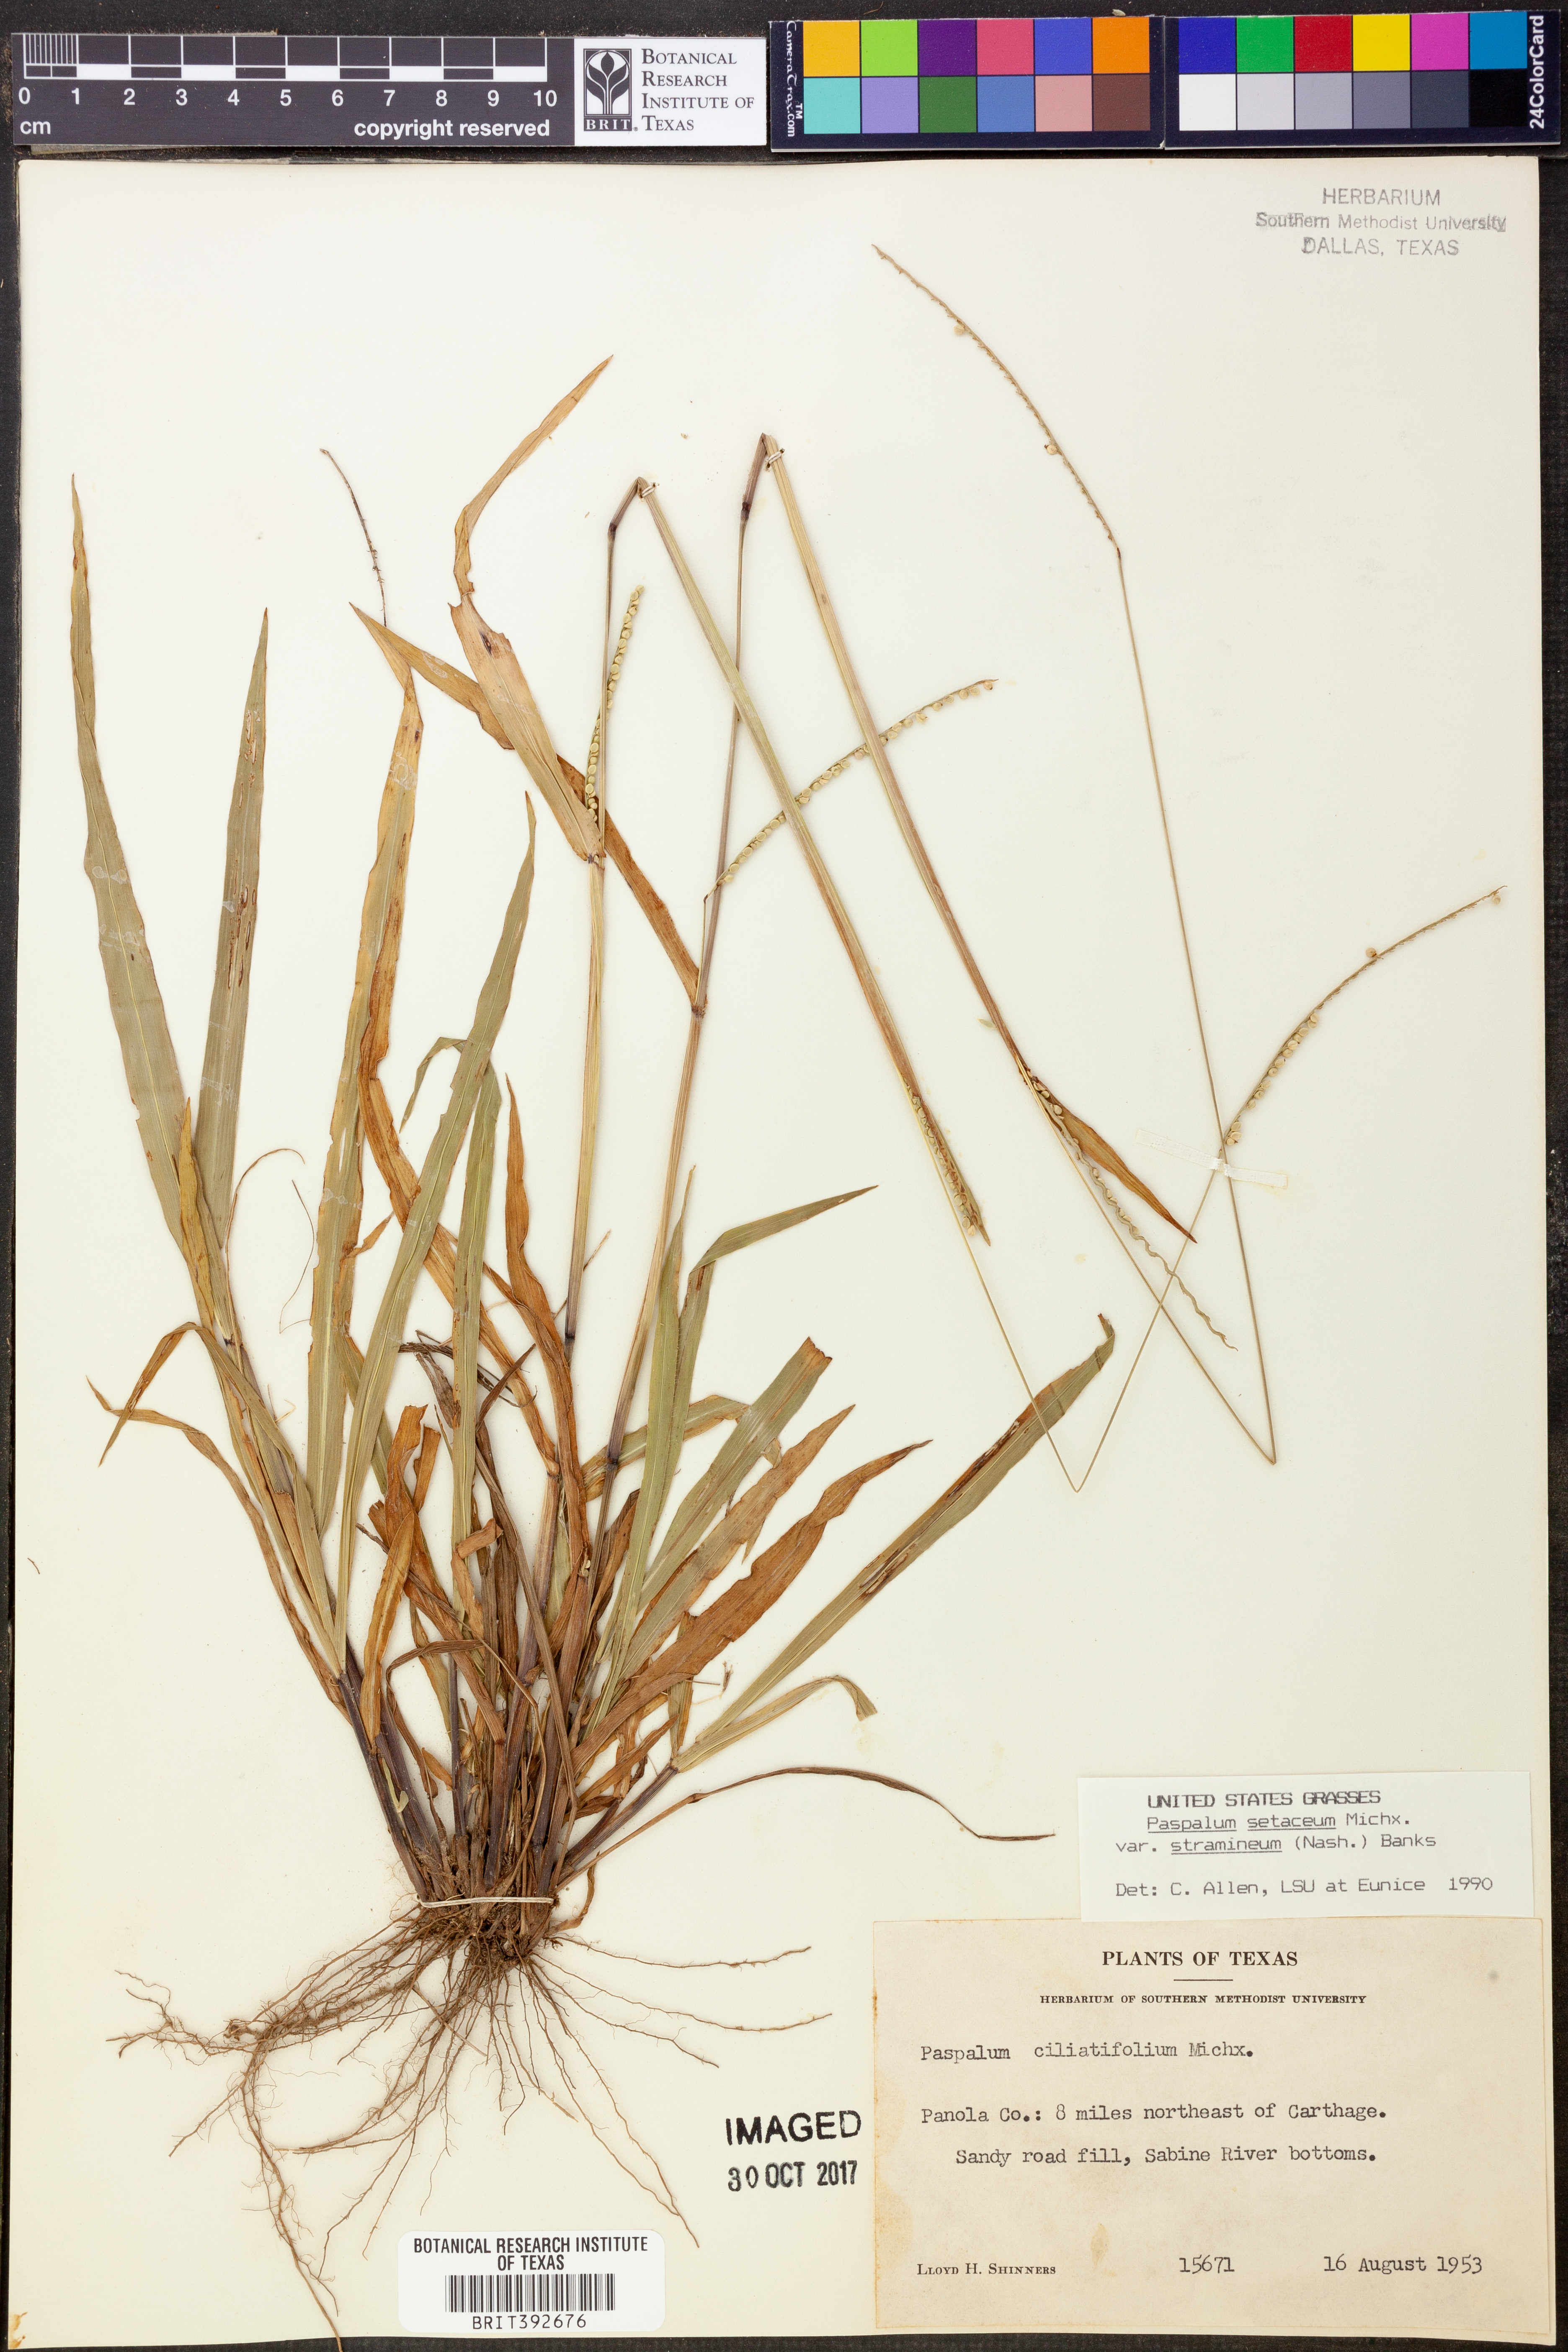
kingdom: Plantae
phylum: Tracheophyta
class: Liliopsida
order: Poales
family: Poaceae
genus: Paspalum
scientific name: Paspalum setaceum
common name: Slender paspalum
